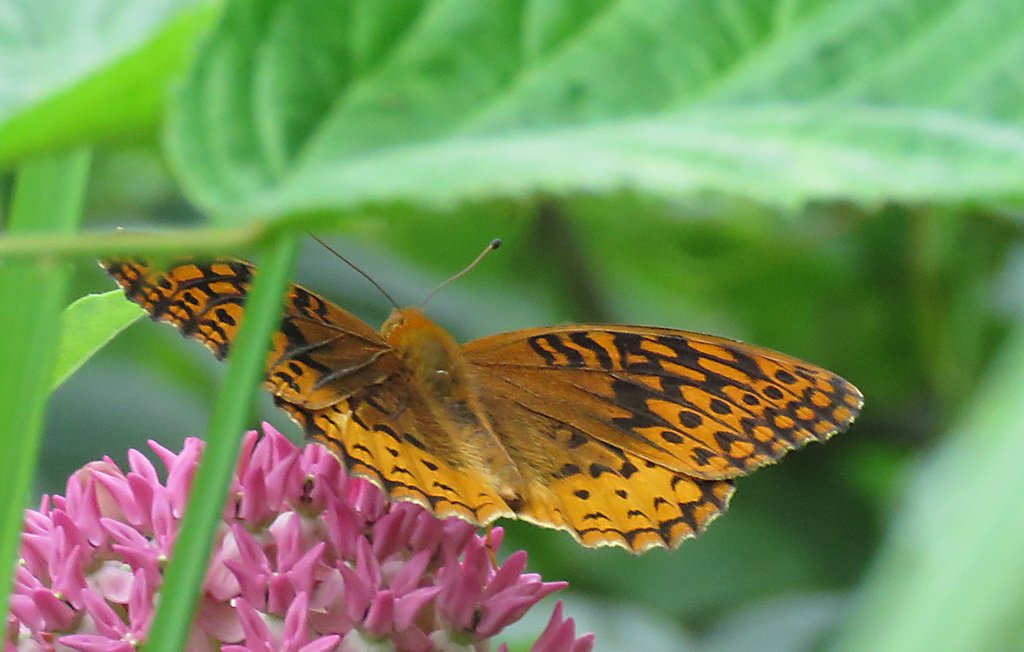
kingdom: Animalia
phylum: Arthropoda
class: Insecta
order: Lepidoptera
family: Nymphalidae
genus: Speyeria
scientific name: Speyeria cybele
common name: Great Spangled Fritillary
